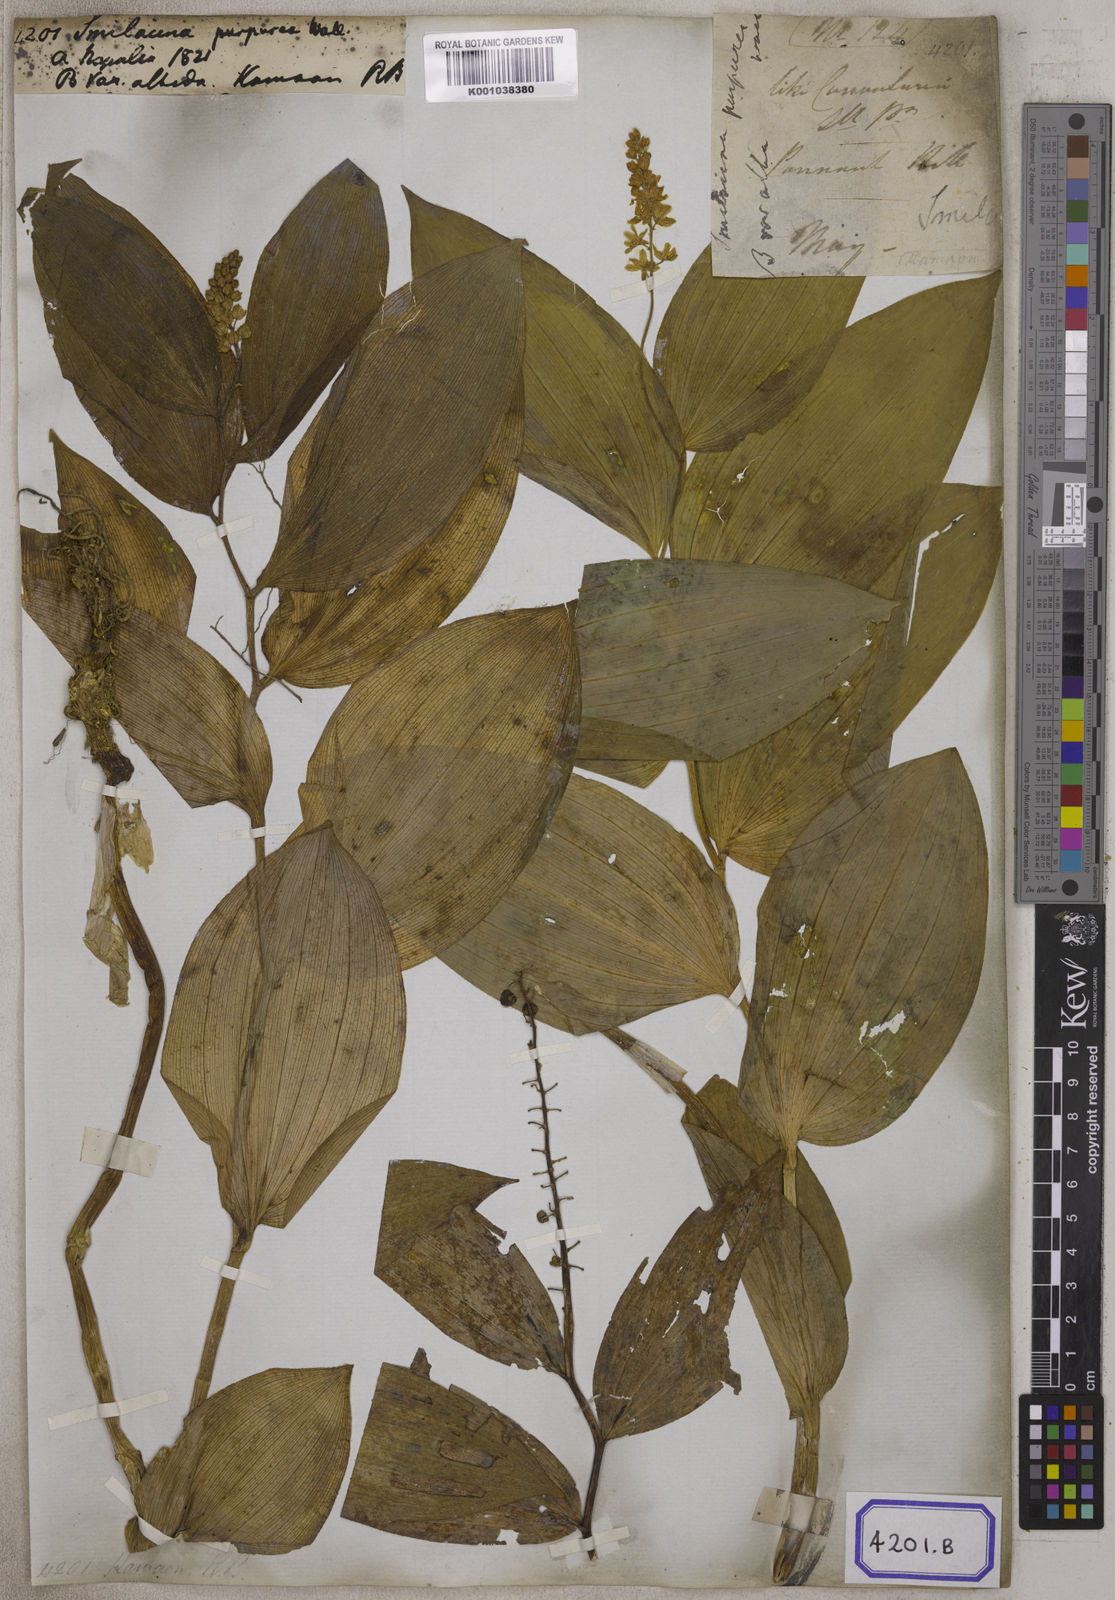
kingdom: Plantae
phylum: Tracheophyta
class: Liliopsida
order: Asparagales
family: Asparagaceae
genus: Maianthemum
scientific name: Maianthemum purpureum
